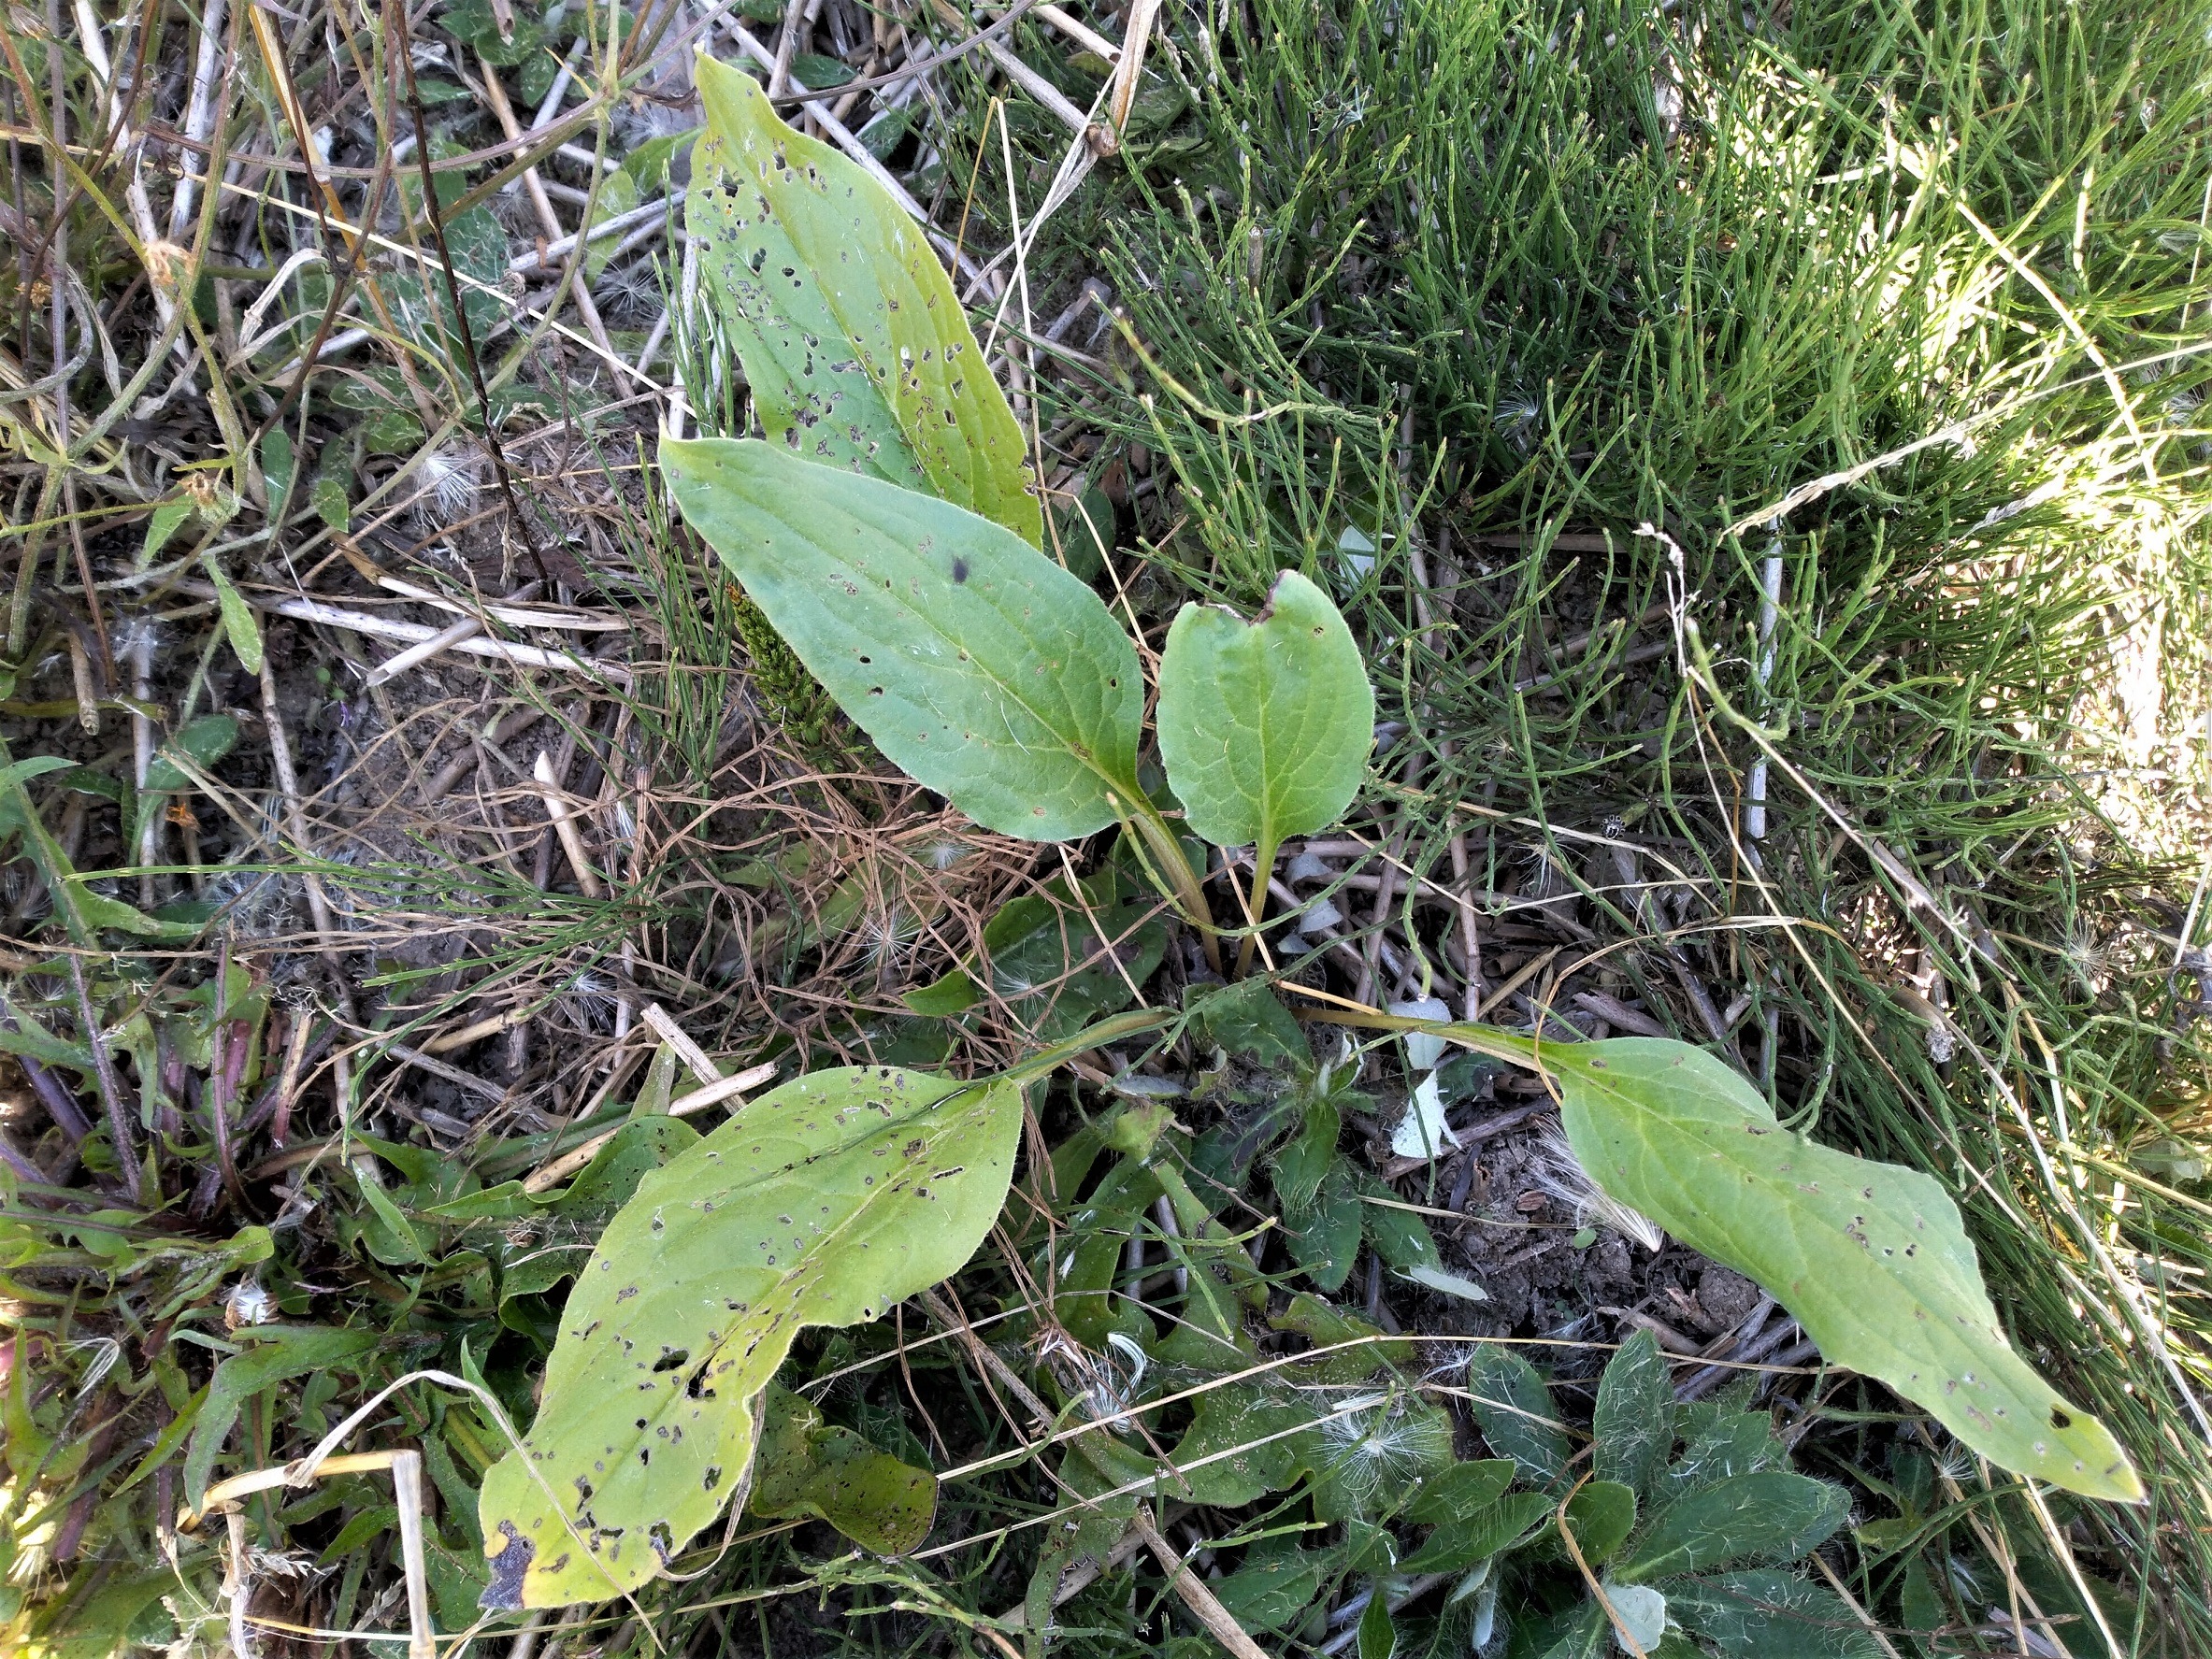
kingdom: Plantae
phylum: Tracheophyta
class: Magnoliopsida
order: Boraginales
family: Boraginaceae
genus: Cynoglossum
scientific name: Cynoglossum officinale
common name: Hundetunge
